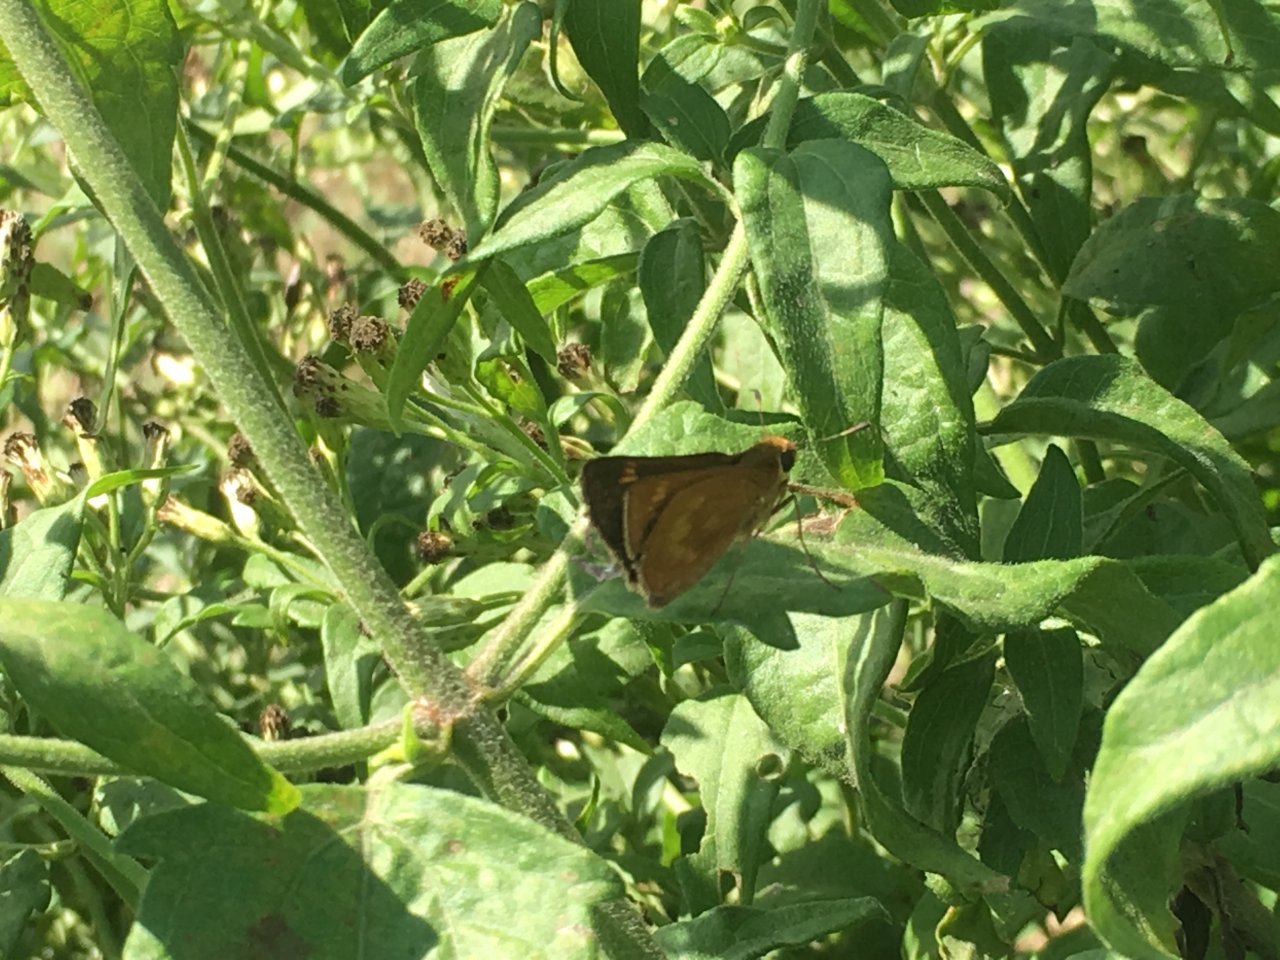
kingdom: Animalia
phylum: Arthropoda
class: Insecta
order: Lepidoptera
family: Hesperiidae
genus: Wallengrenia
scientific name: Wallengrenia otho
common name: Southern Broken-Dash
